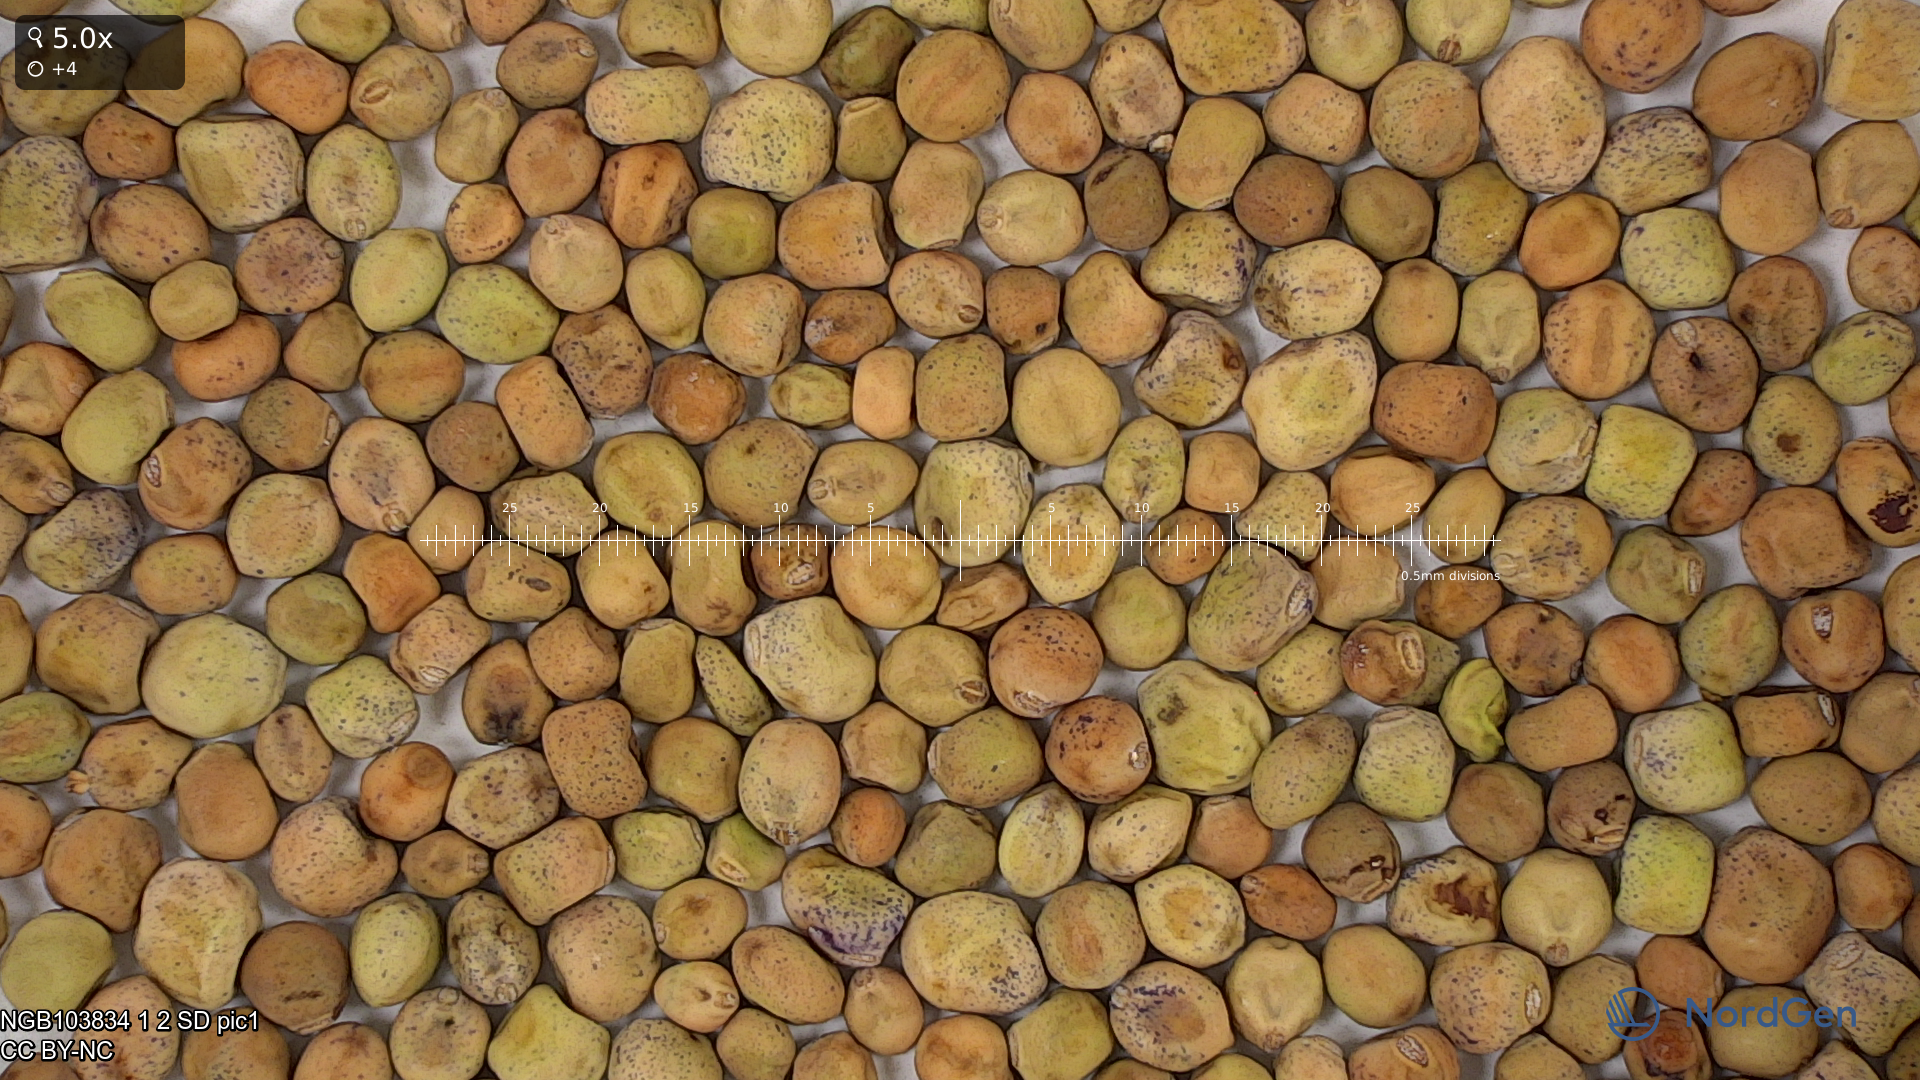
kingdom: Plantae
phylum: Tracheophyta
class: Magnoliopsida
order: Fabales
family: Fabaceae
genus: Lathyrus
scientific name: Lathyrus oleraceus
